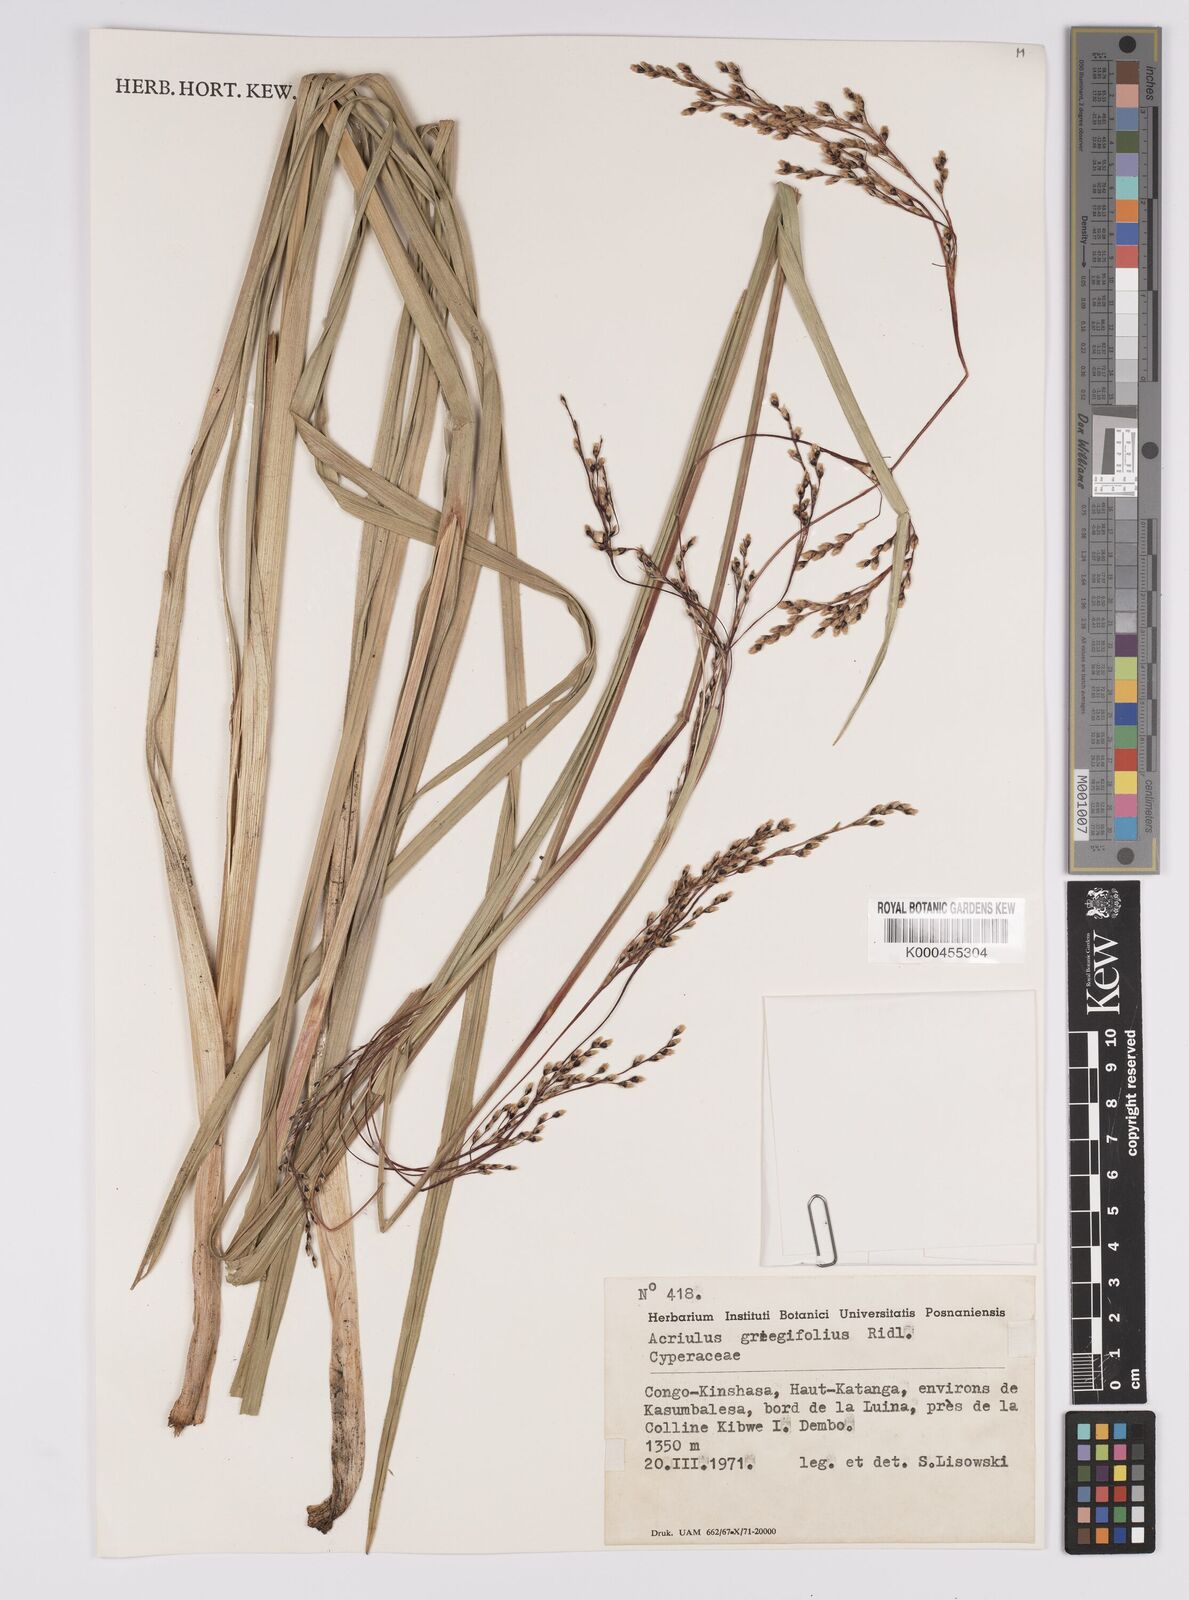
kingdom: Plantae
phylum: Tracheophyta
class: Liliopsida
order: Poales
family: Cyperaceae
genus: Scleria
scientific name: Scleria greigiifolia
